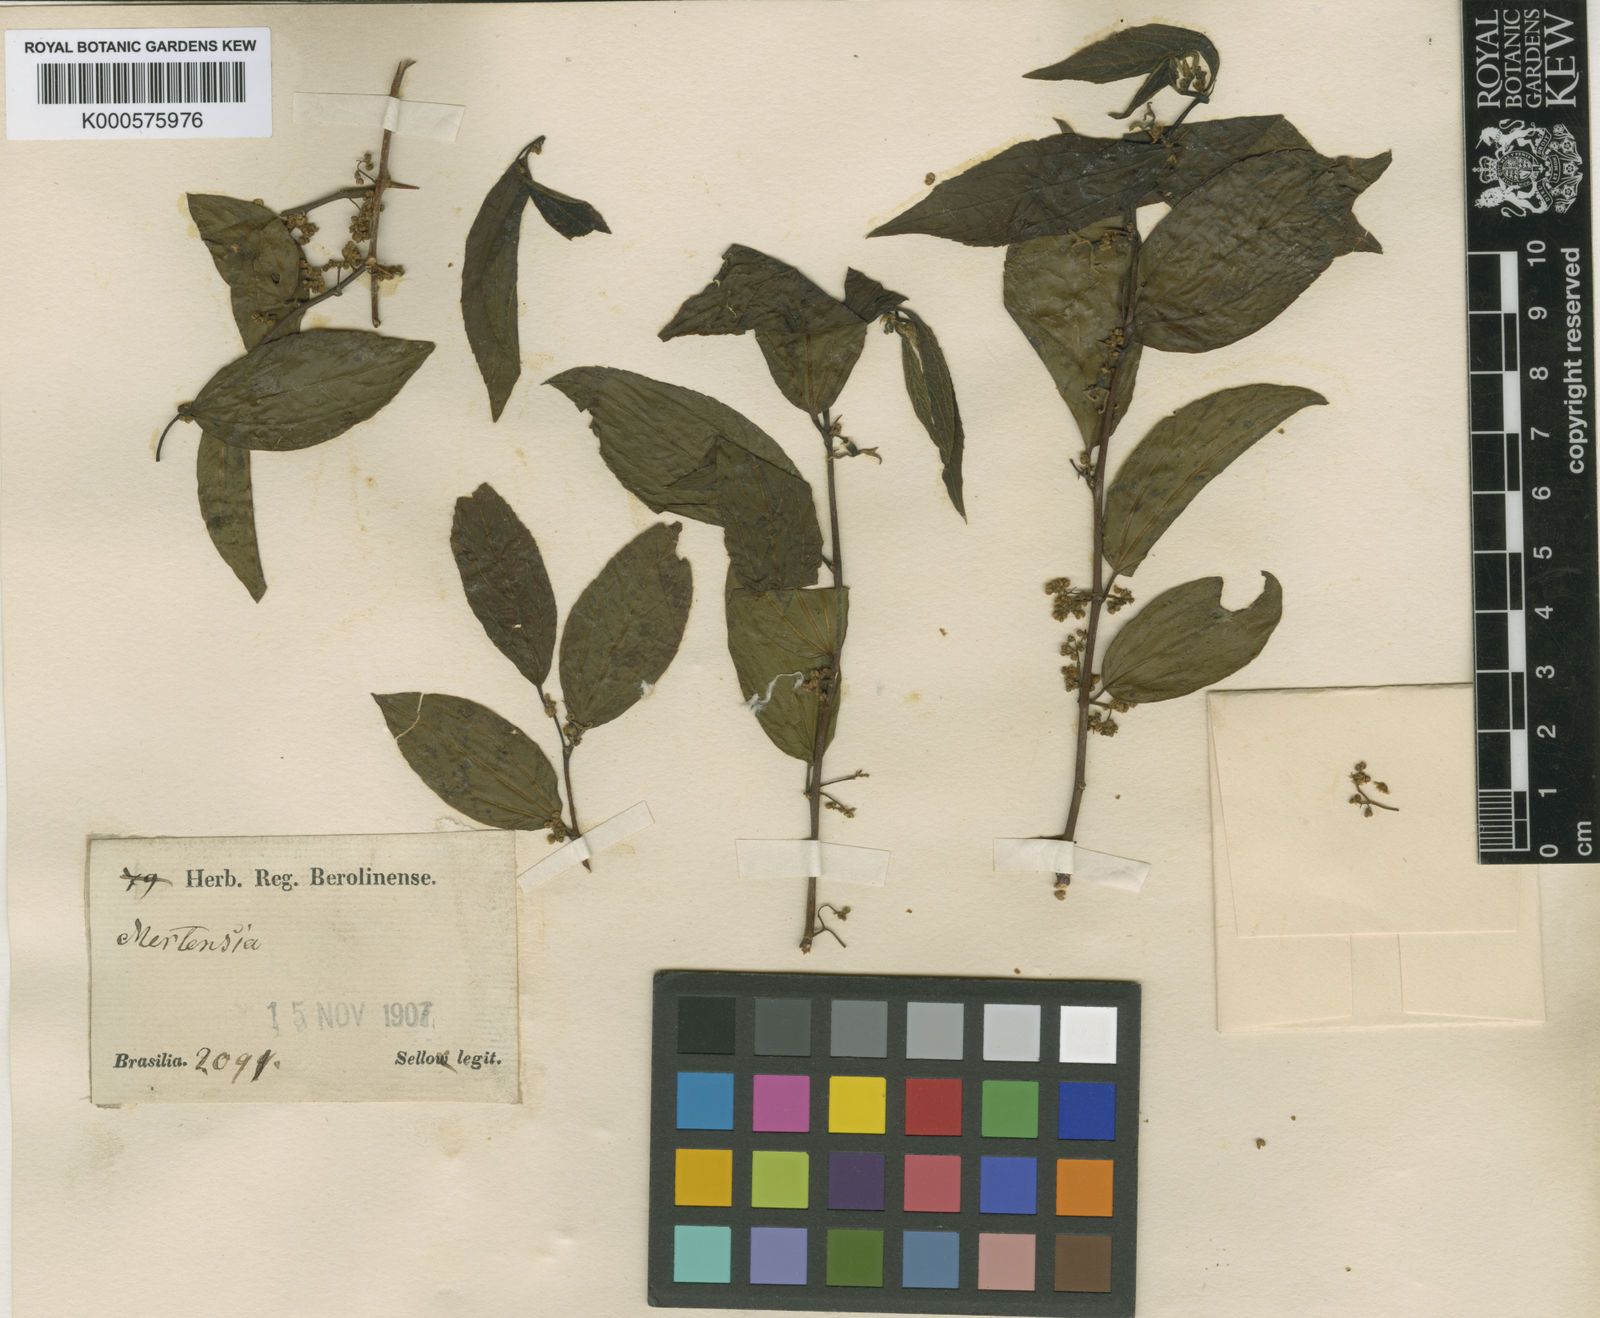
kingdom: Plantae
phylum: Tracheophyta
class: Magnoliopsida
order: Rosales
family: Cannabaceae
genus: Celtis
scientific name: Celtis iguanaea
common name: Iguana hackberry
